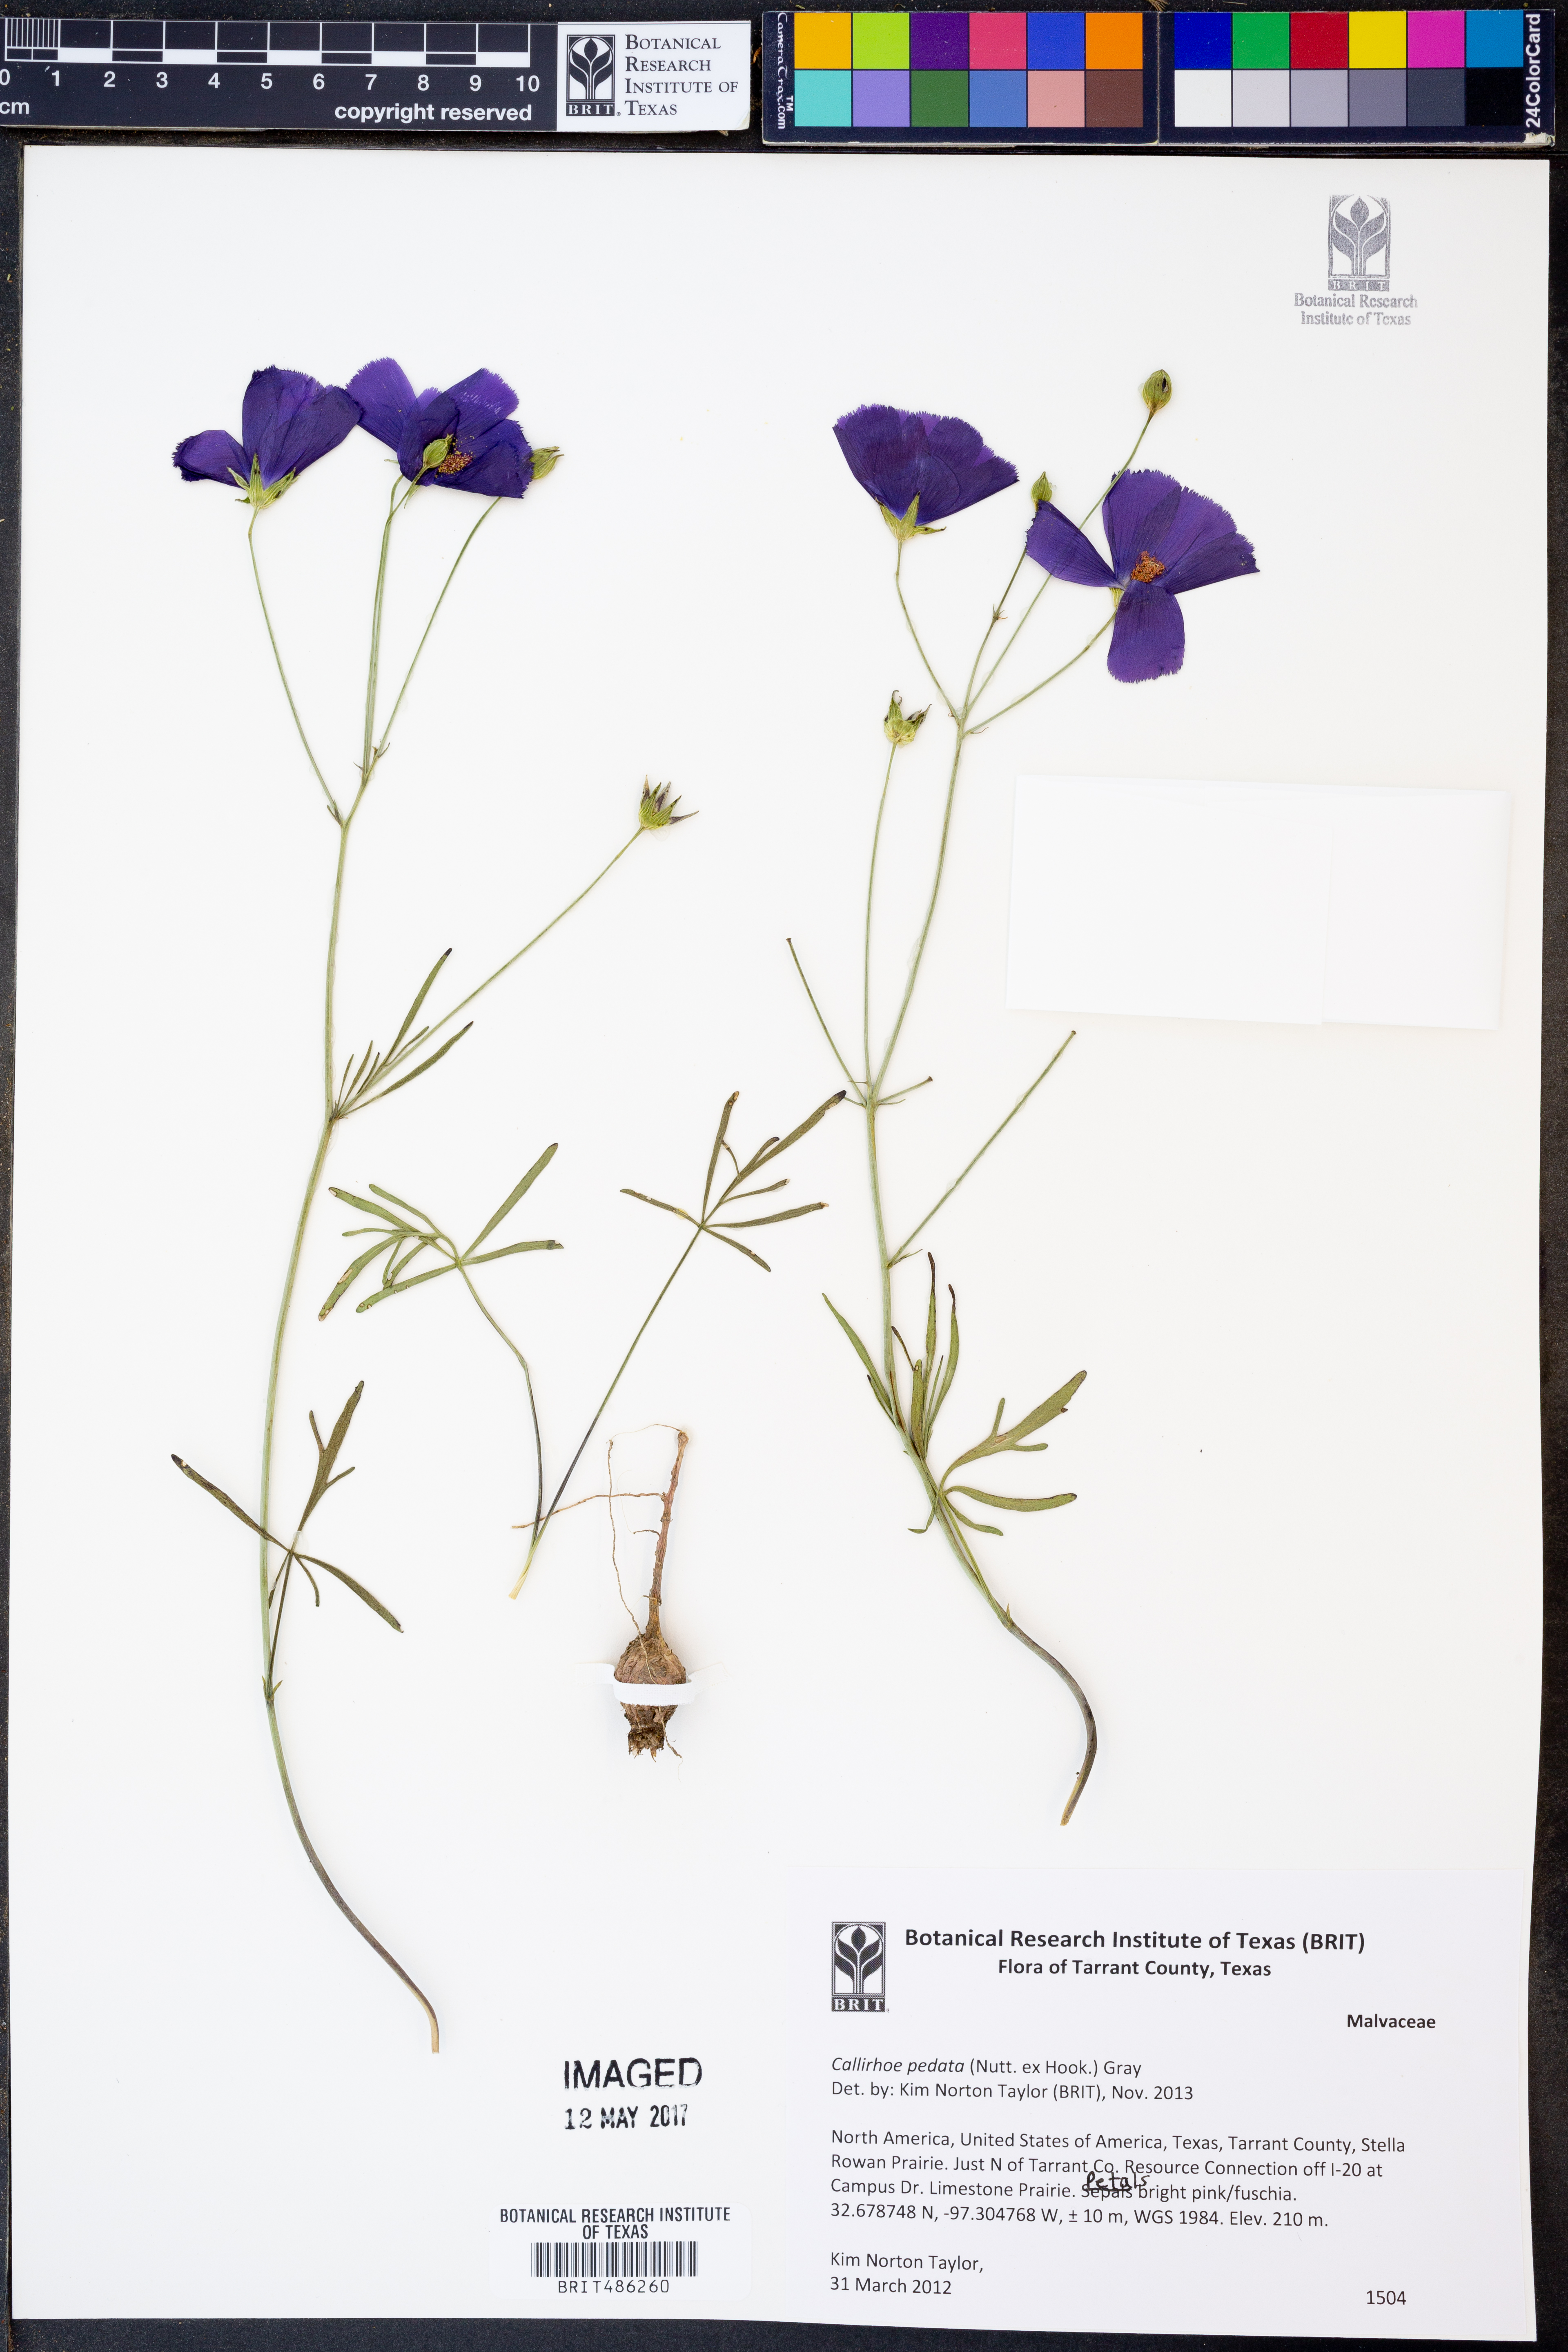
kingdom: Plantae
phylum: Tracheophyta
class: Magnoliopsida
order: Malvales
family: Malvaceae
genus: Callirhoe
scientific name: Callirhoe pedata
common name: Finger poppy-mallow
